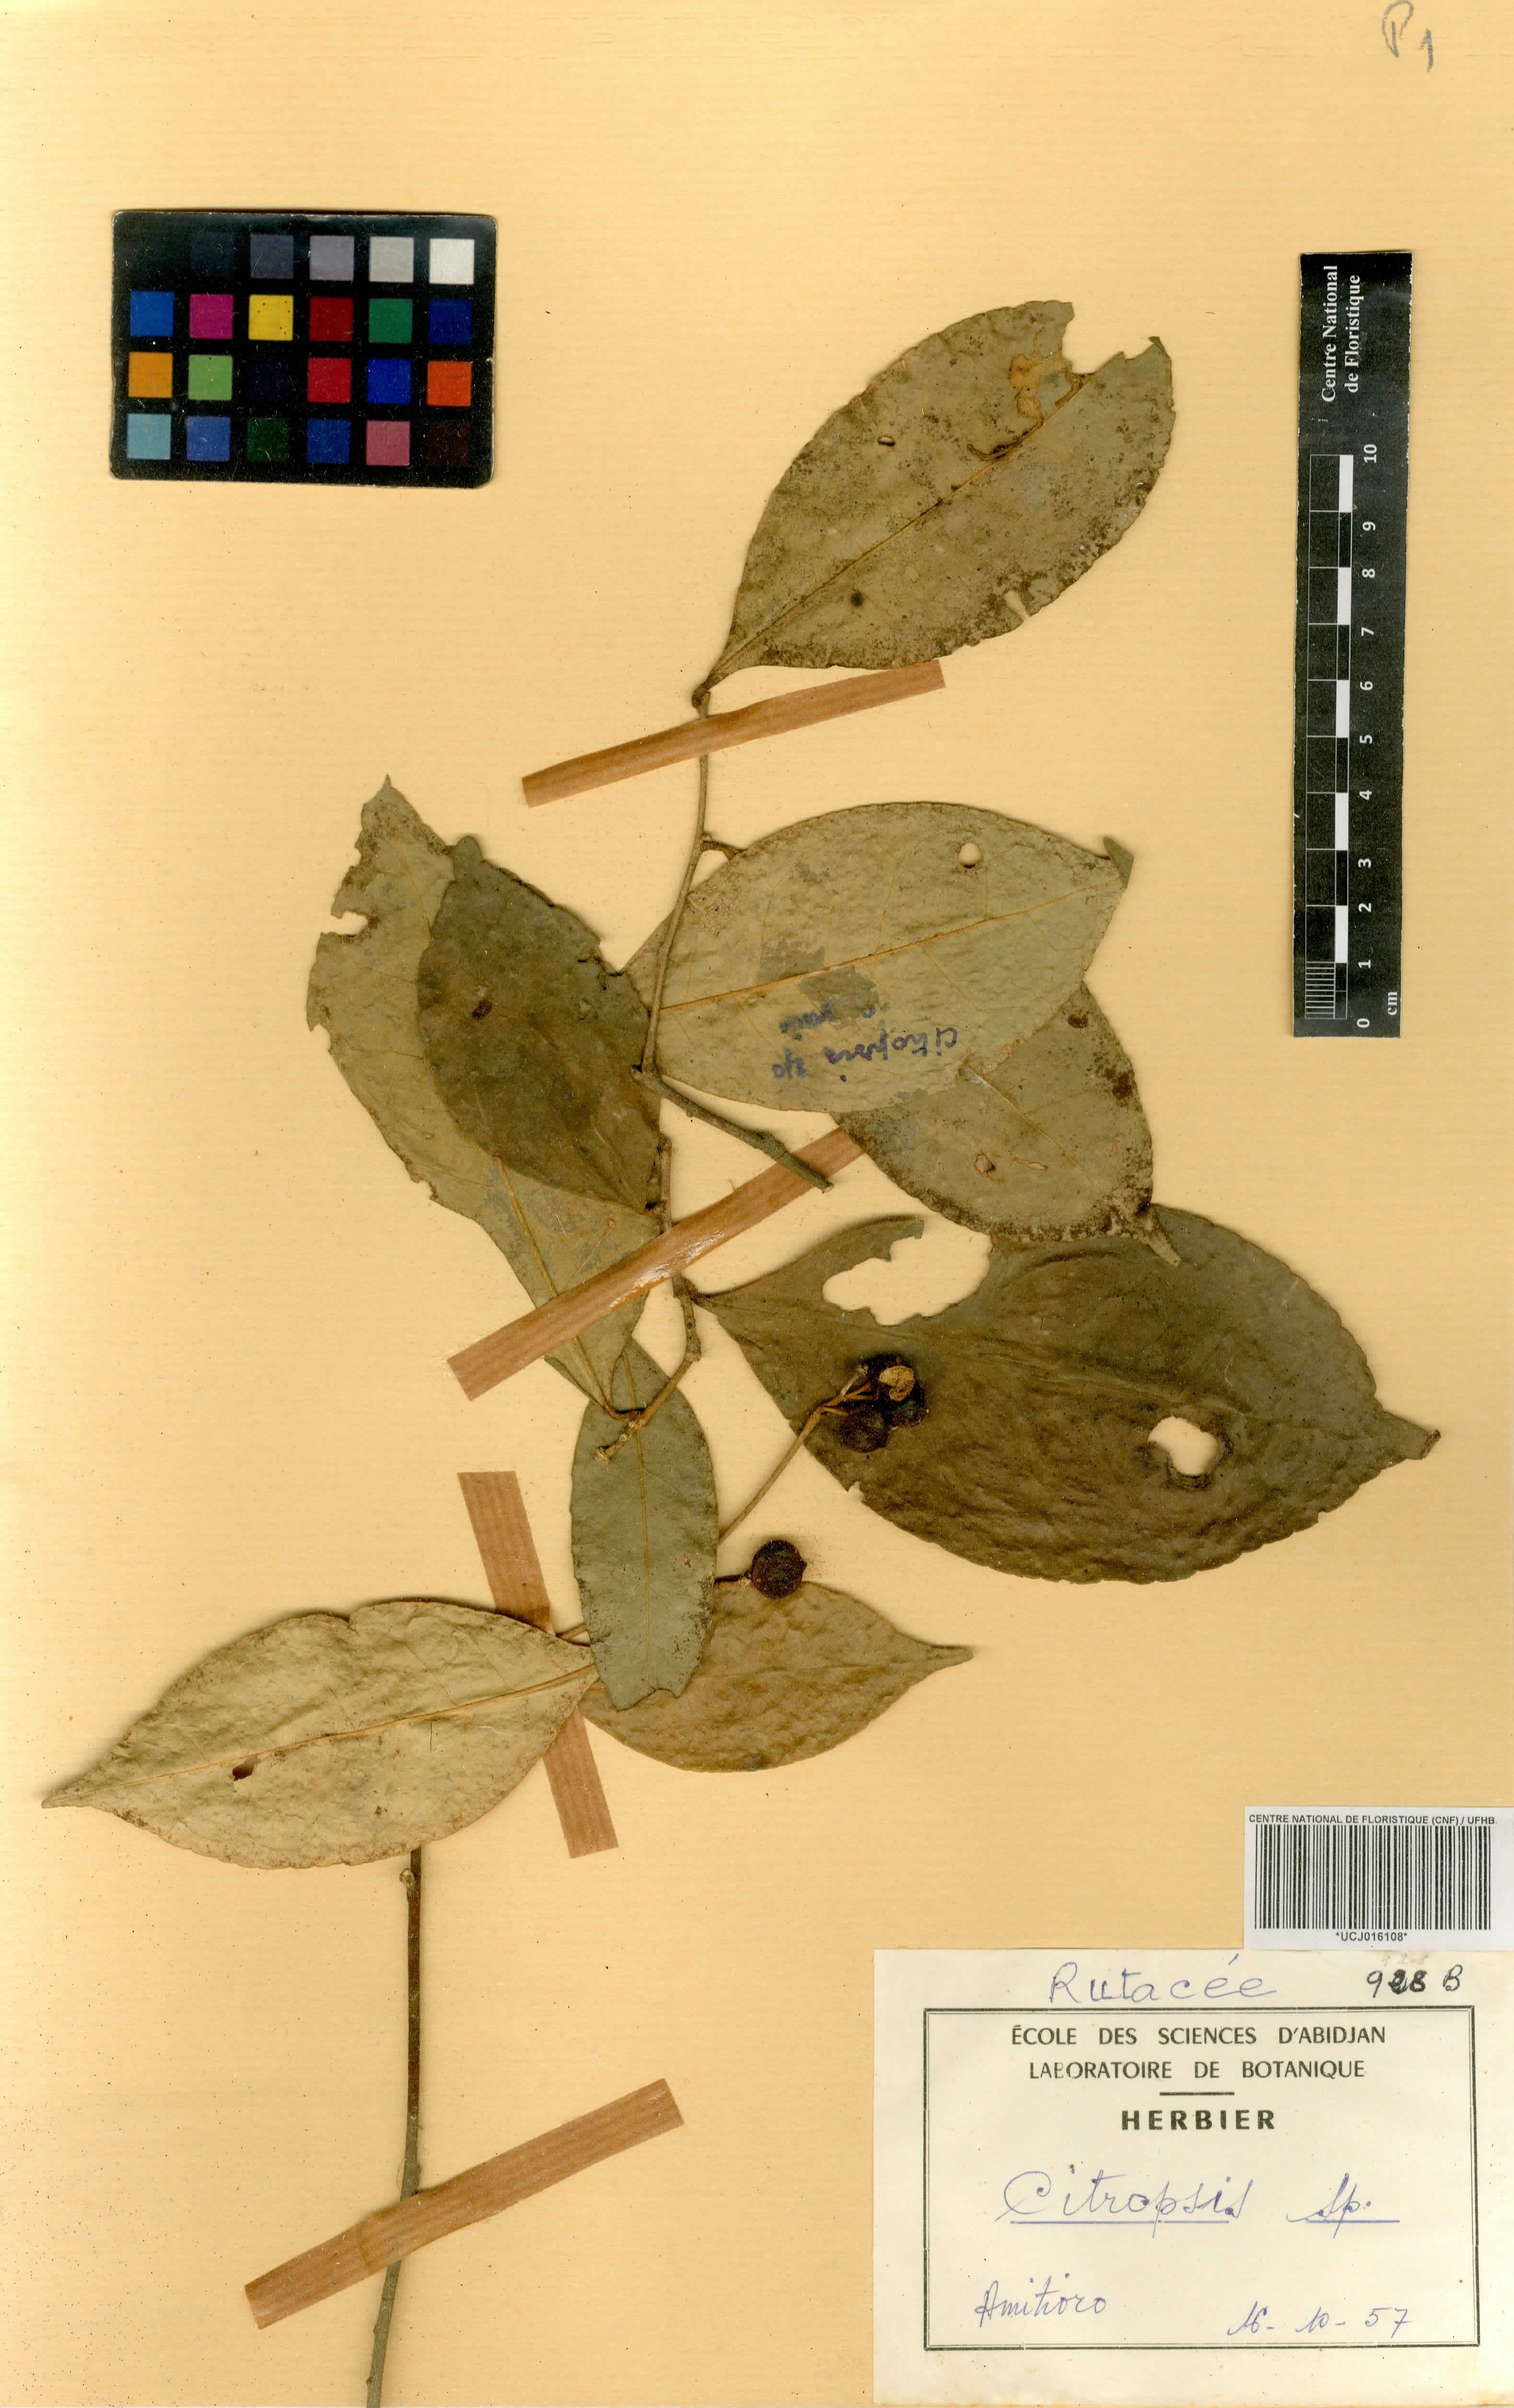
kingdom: Plantae
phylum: Tracheophyta
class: Magnoliopsida
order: Sapindales
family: Rutaceae
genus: Citrus
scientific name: Citrus aurantiifolia
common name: Key lime
